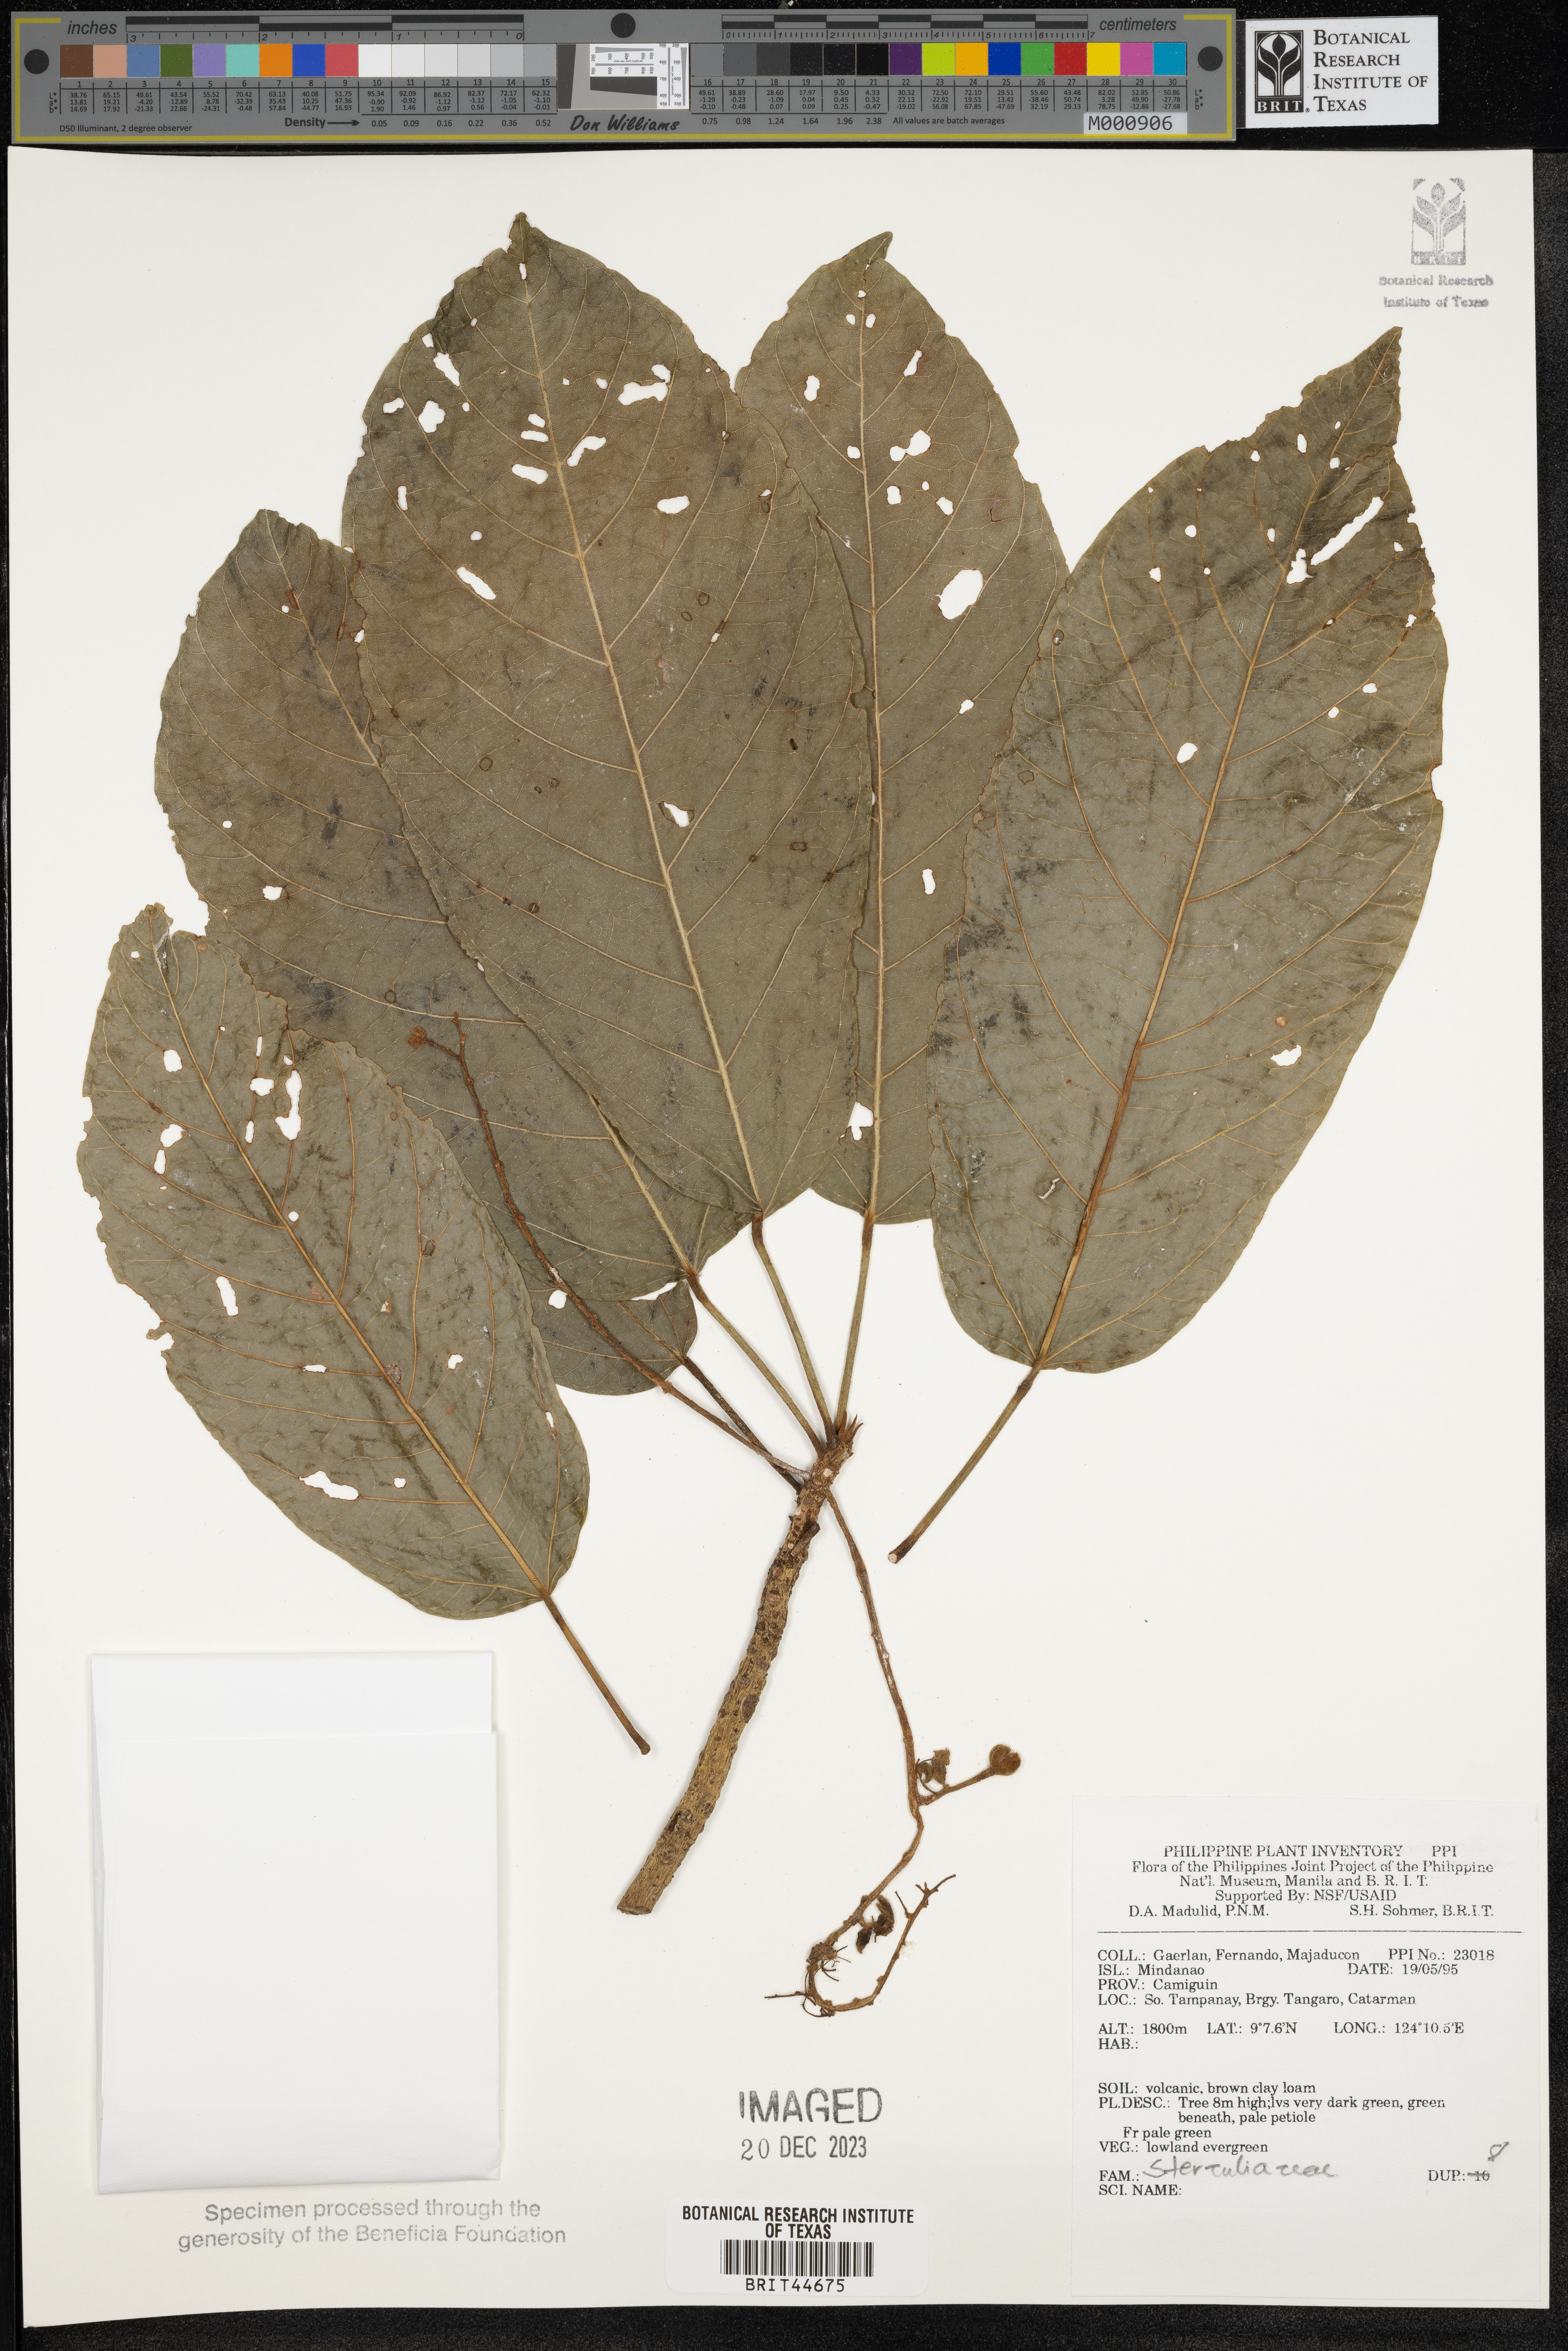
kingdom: Plantae
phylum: Tracheophyta
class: Magnoliopsida
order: Malvales
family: Sterculiaceae
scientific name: Sterculiaceae
